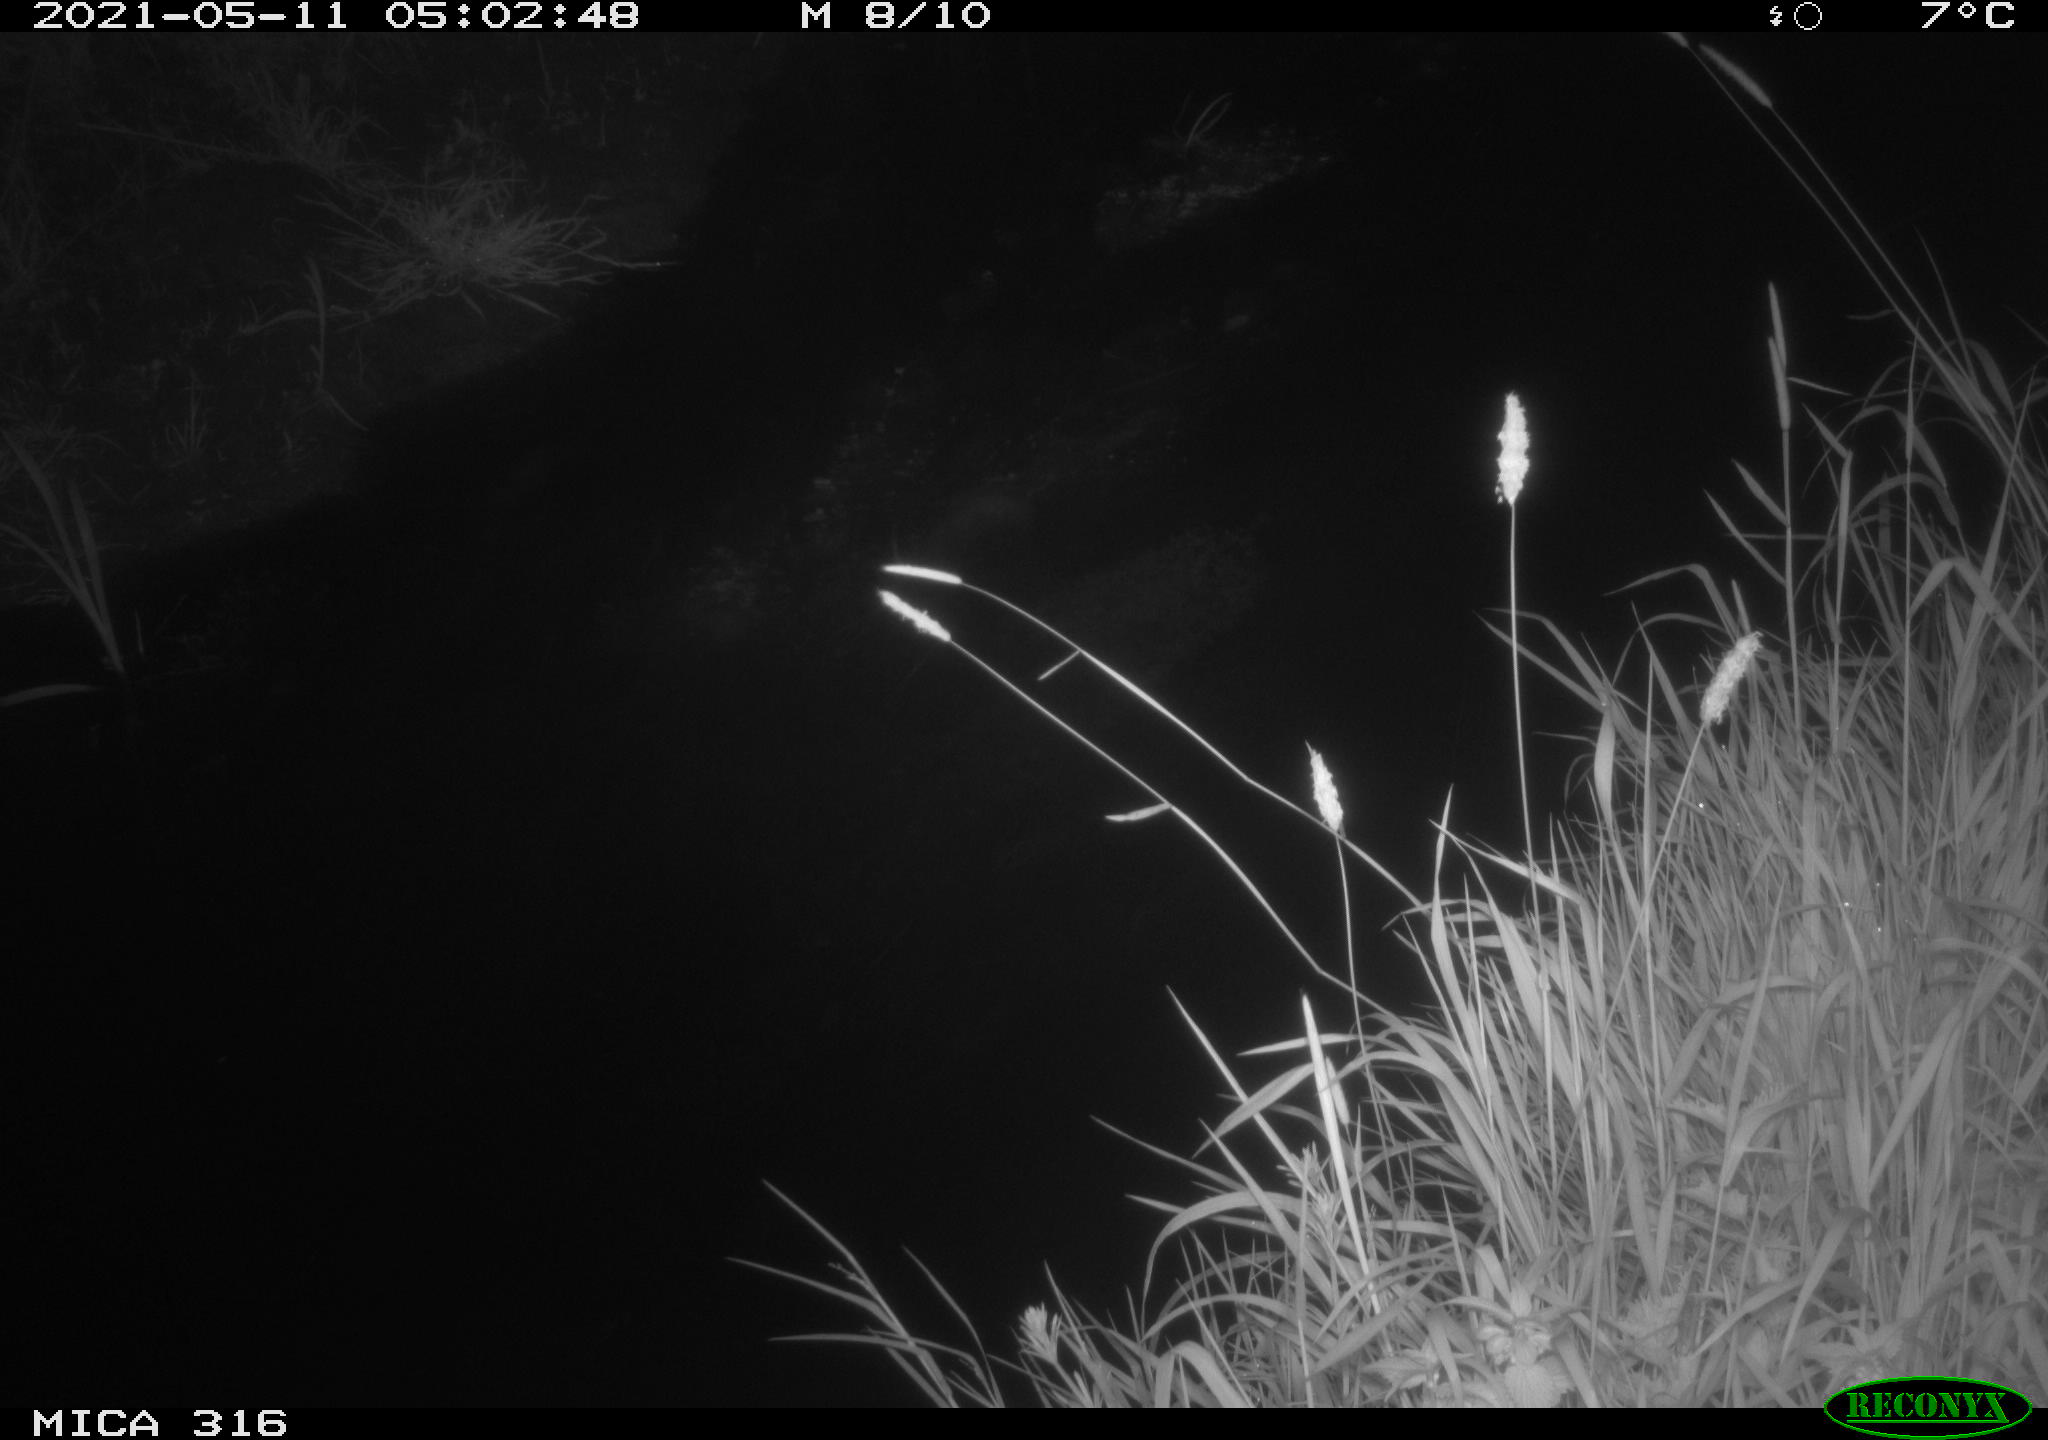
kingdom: Animalia
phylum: Chordata
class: Aves
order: Anseriformes
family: Anatidae
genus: Anas
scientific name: Anas platyrhynchos
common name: Mallard
